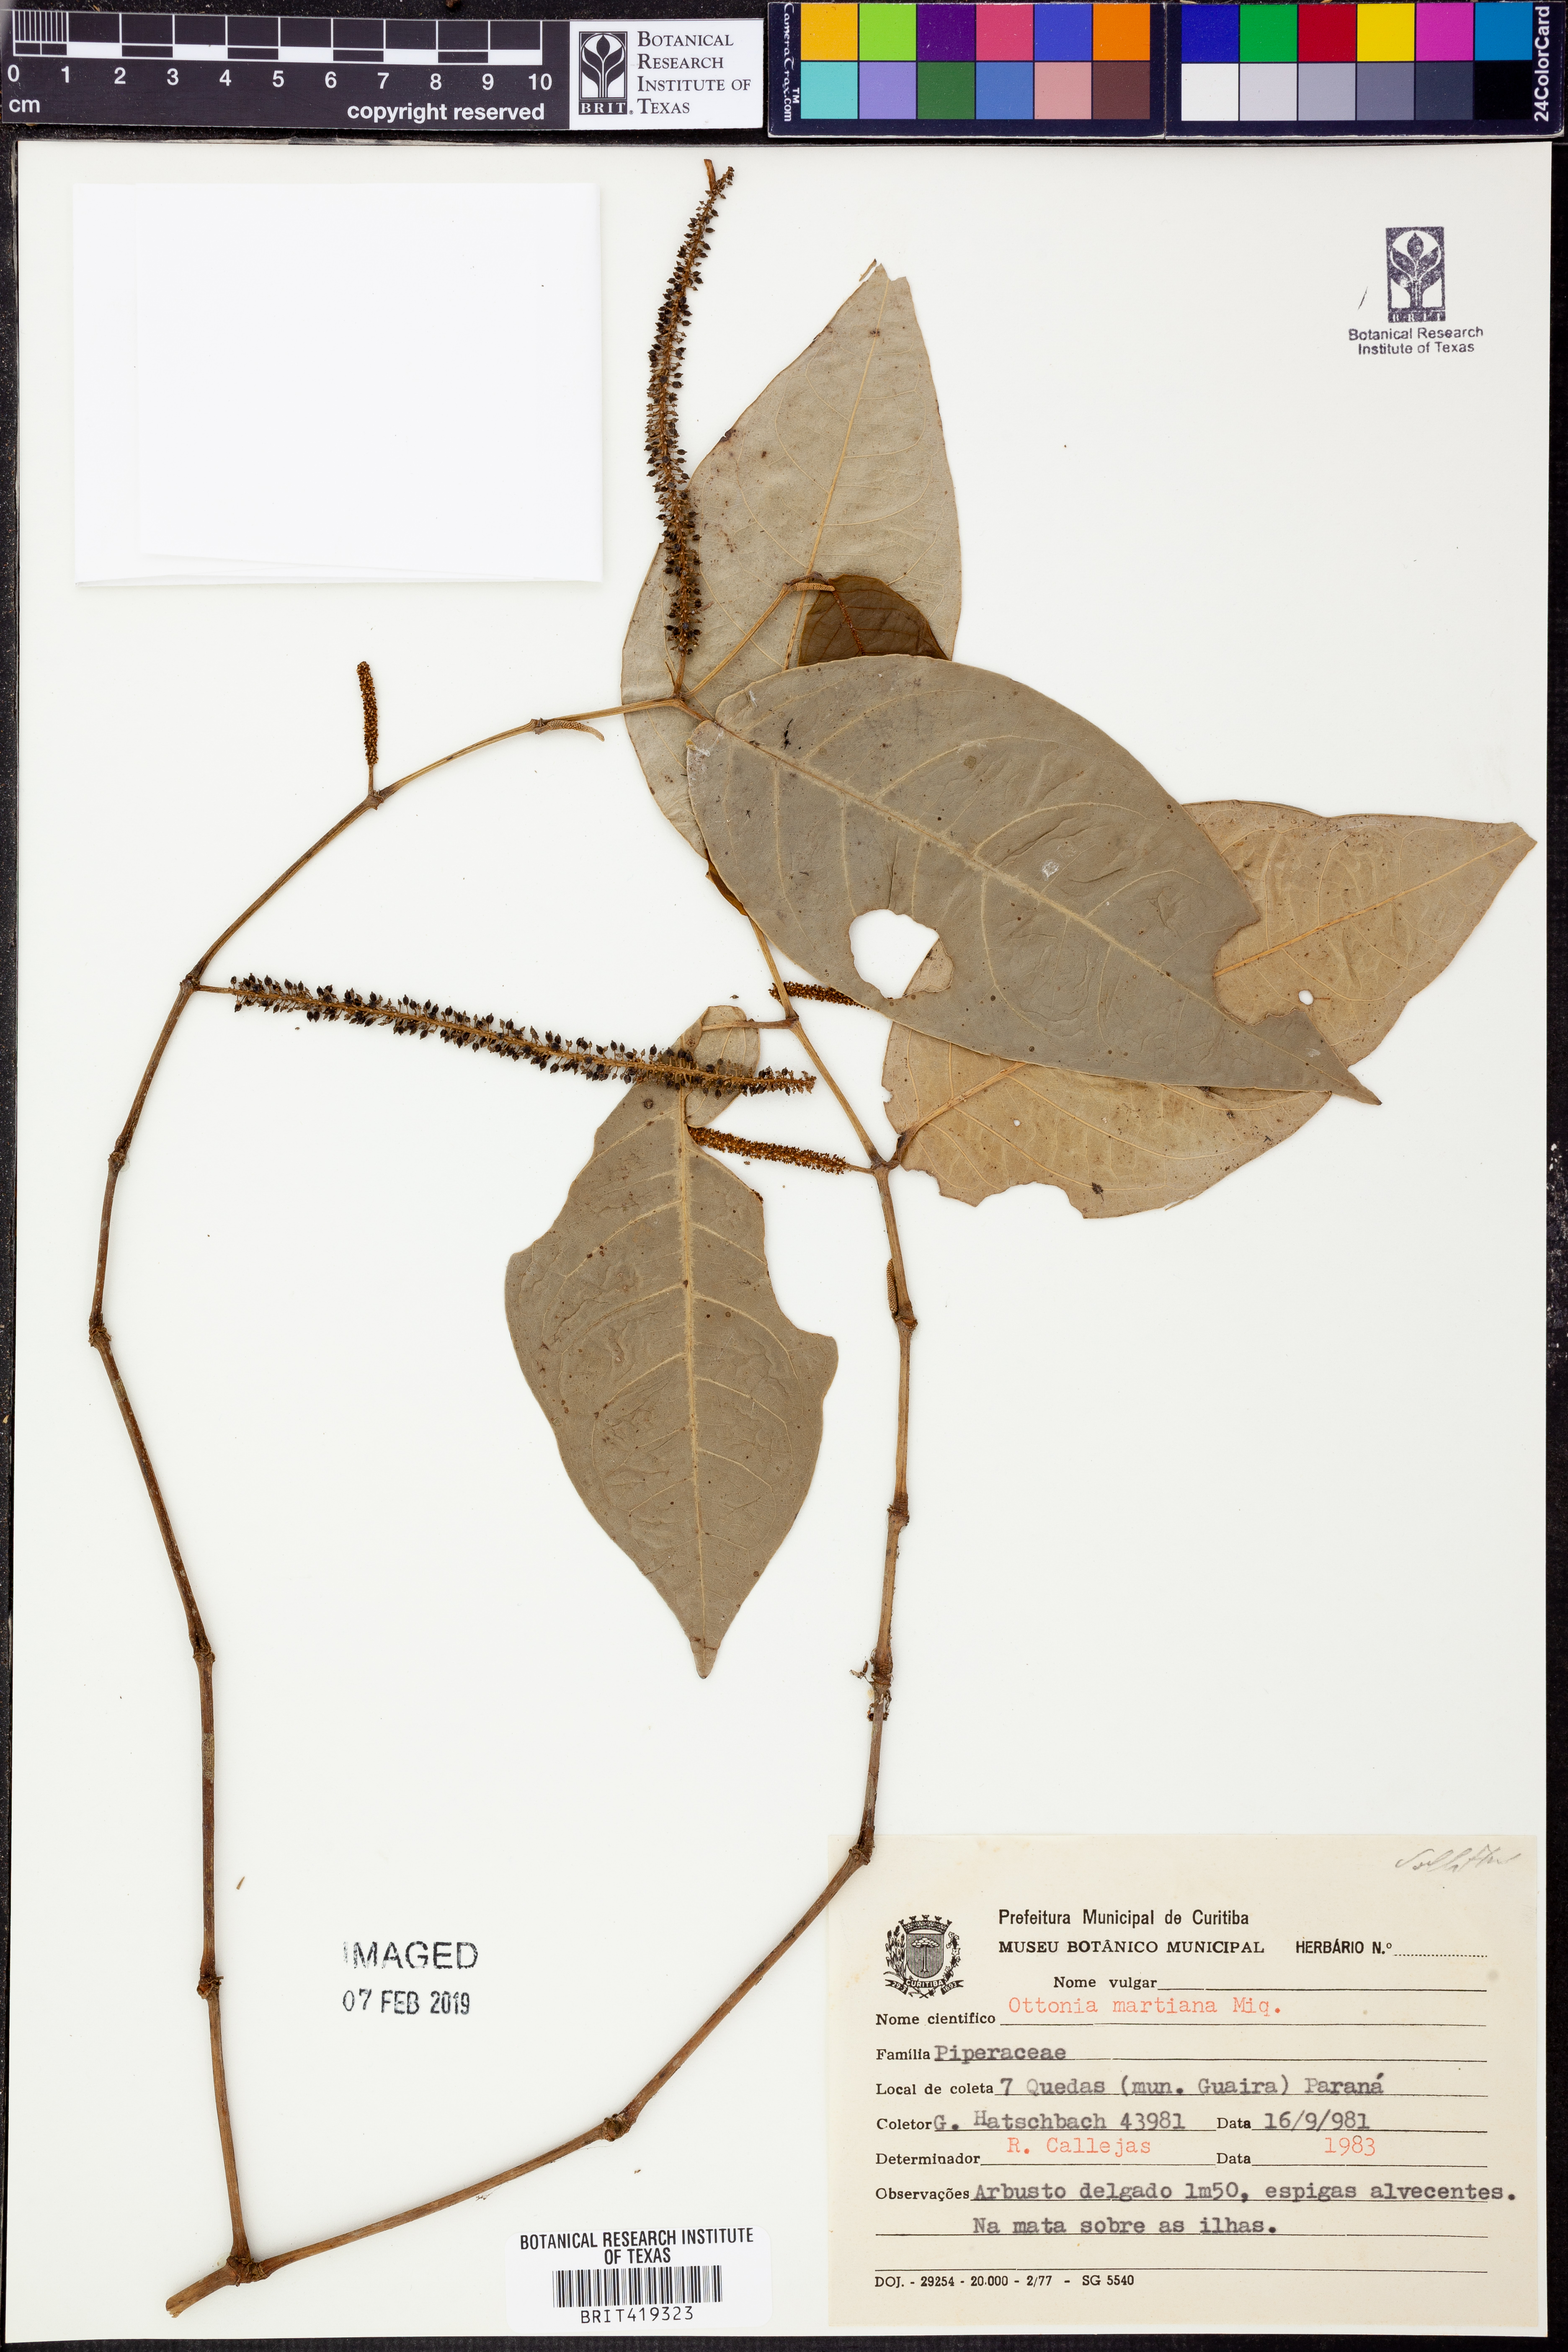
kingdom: Plantae
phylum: Tracheophyta
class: Magnoliopsida
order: Piperales
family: Piperaceae
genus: Piper
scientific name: Piper miquelianum
